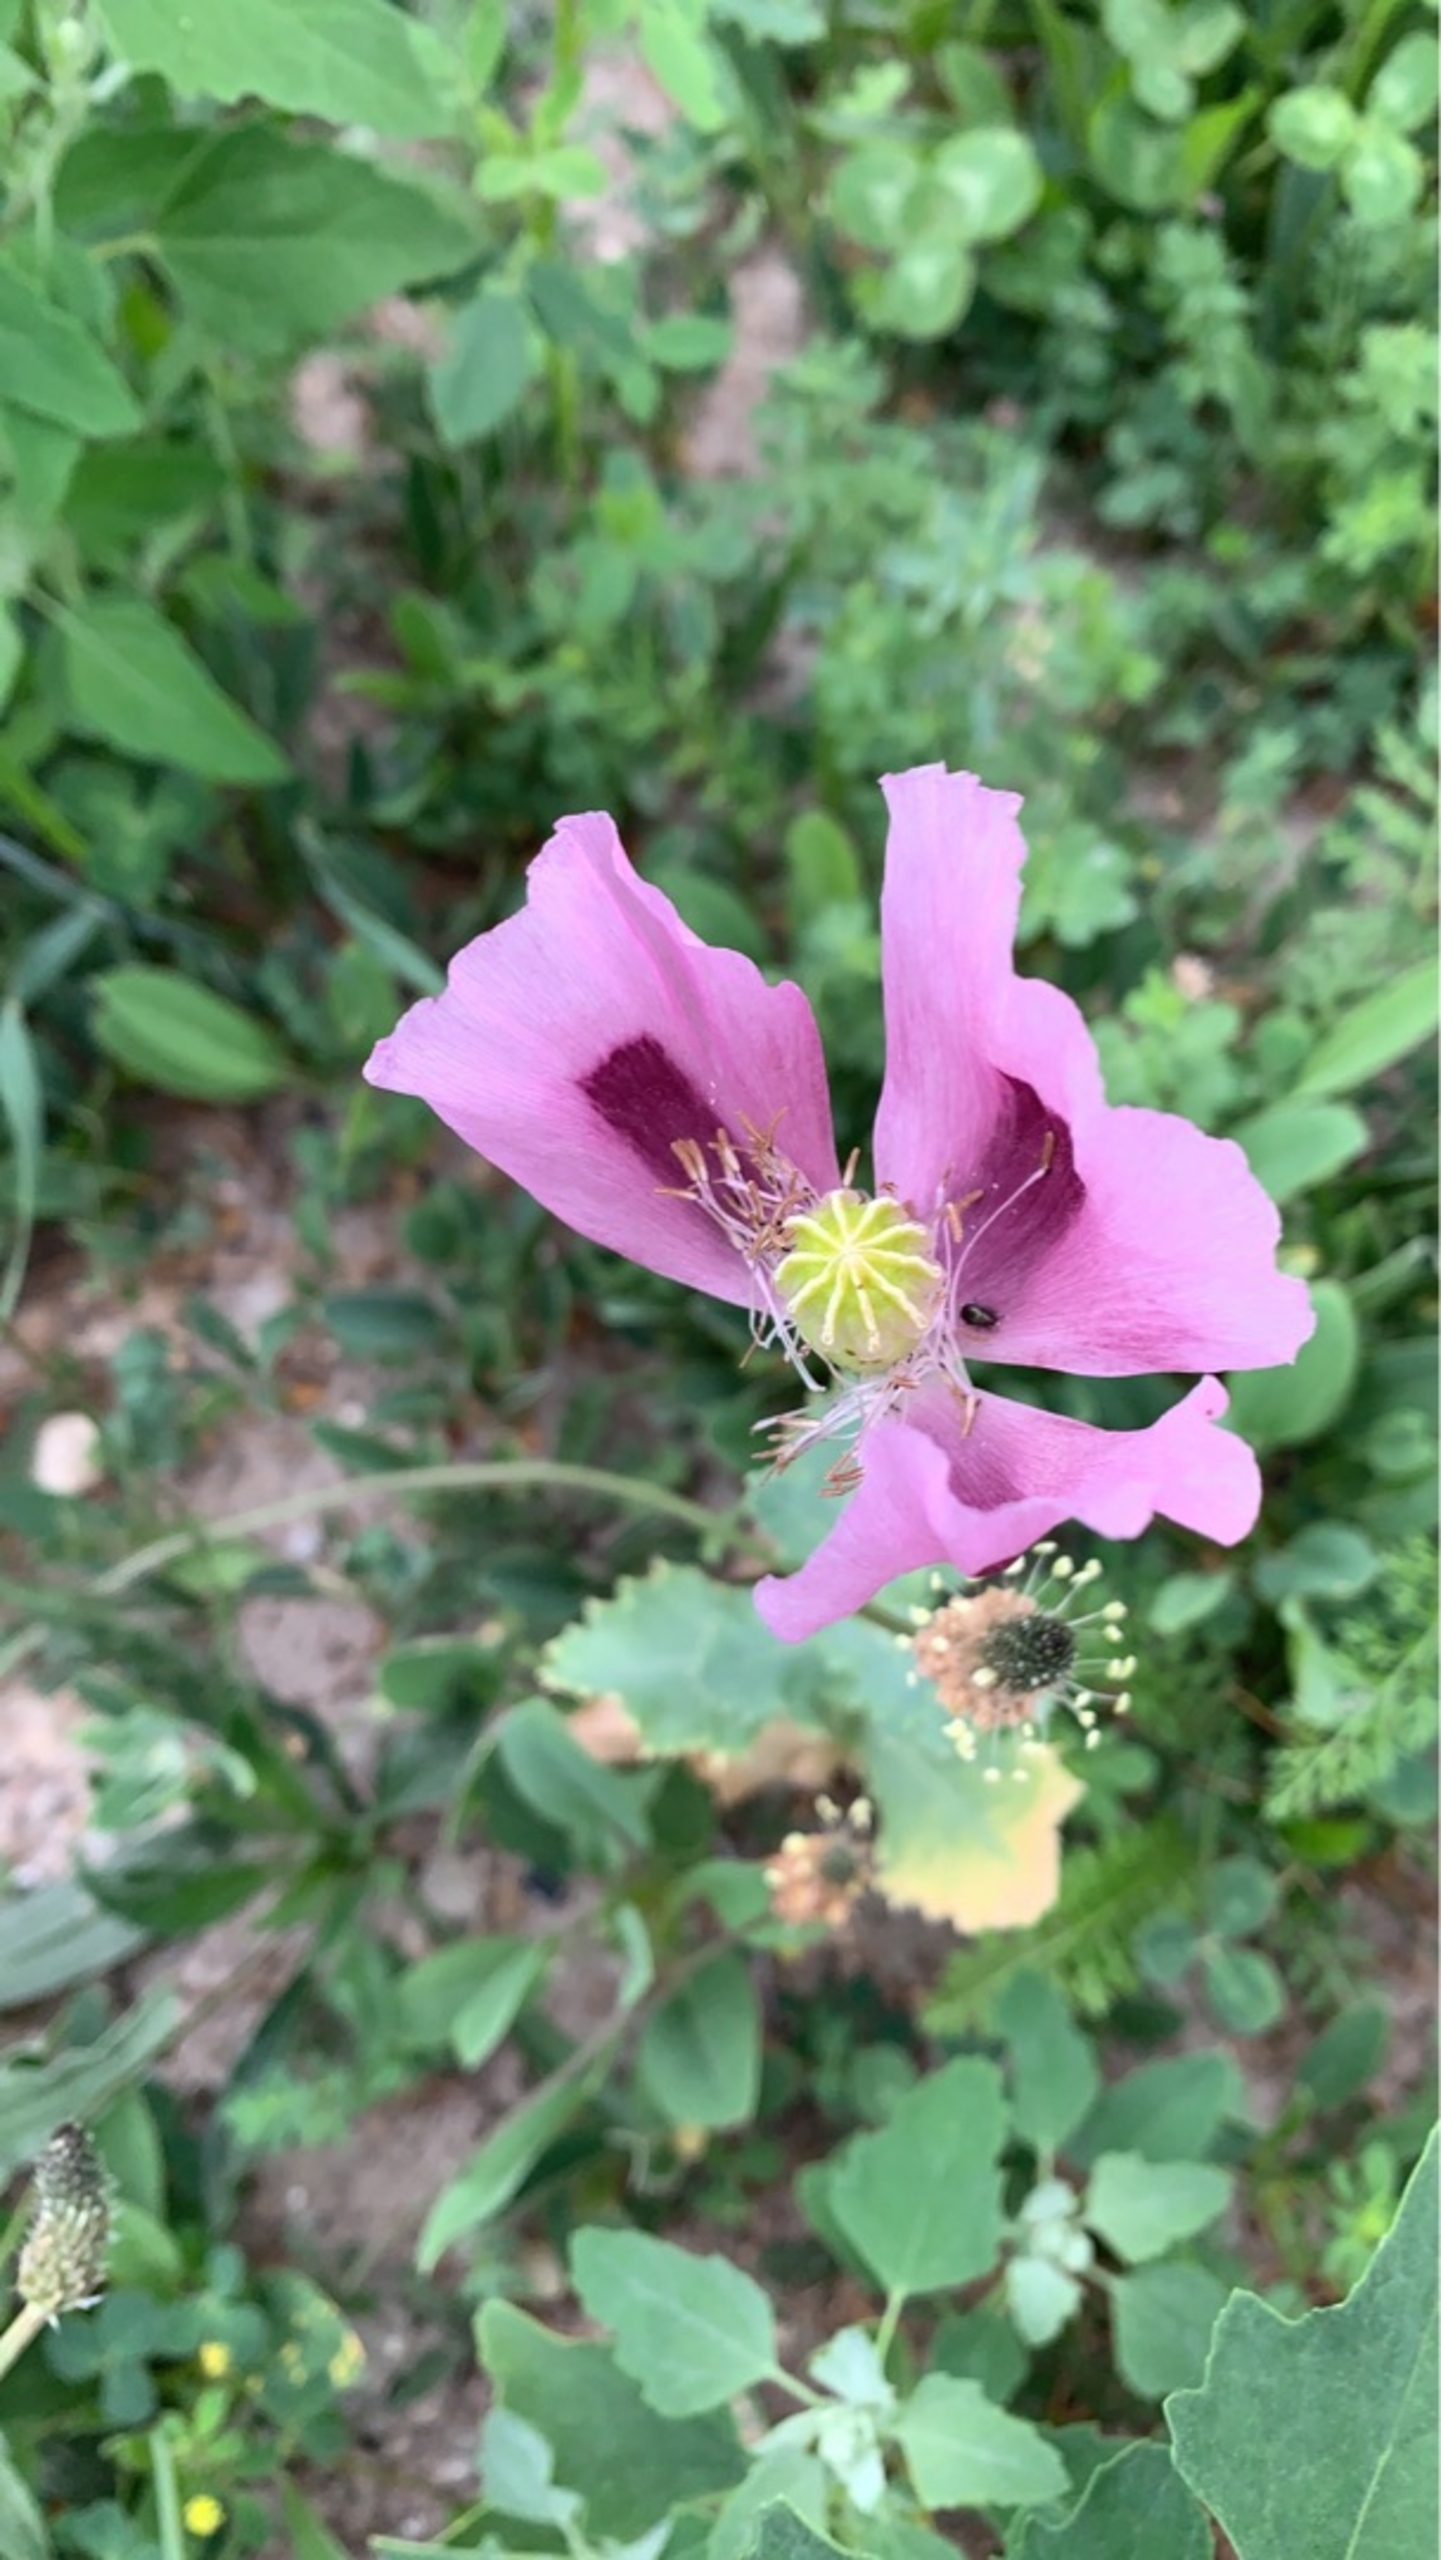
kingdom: Plantae
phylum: Tracheophyta
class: Magnoliopsida
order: Ranunculales
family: Papaveraceae
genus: Papaver
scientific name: Papaver somniferum
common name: Opium-valmue
